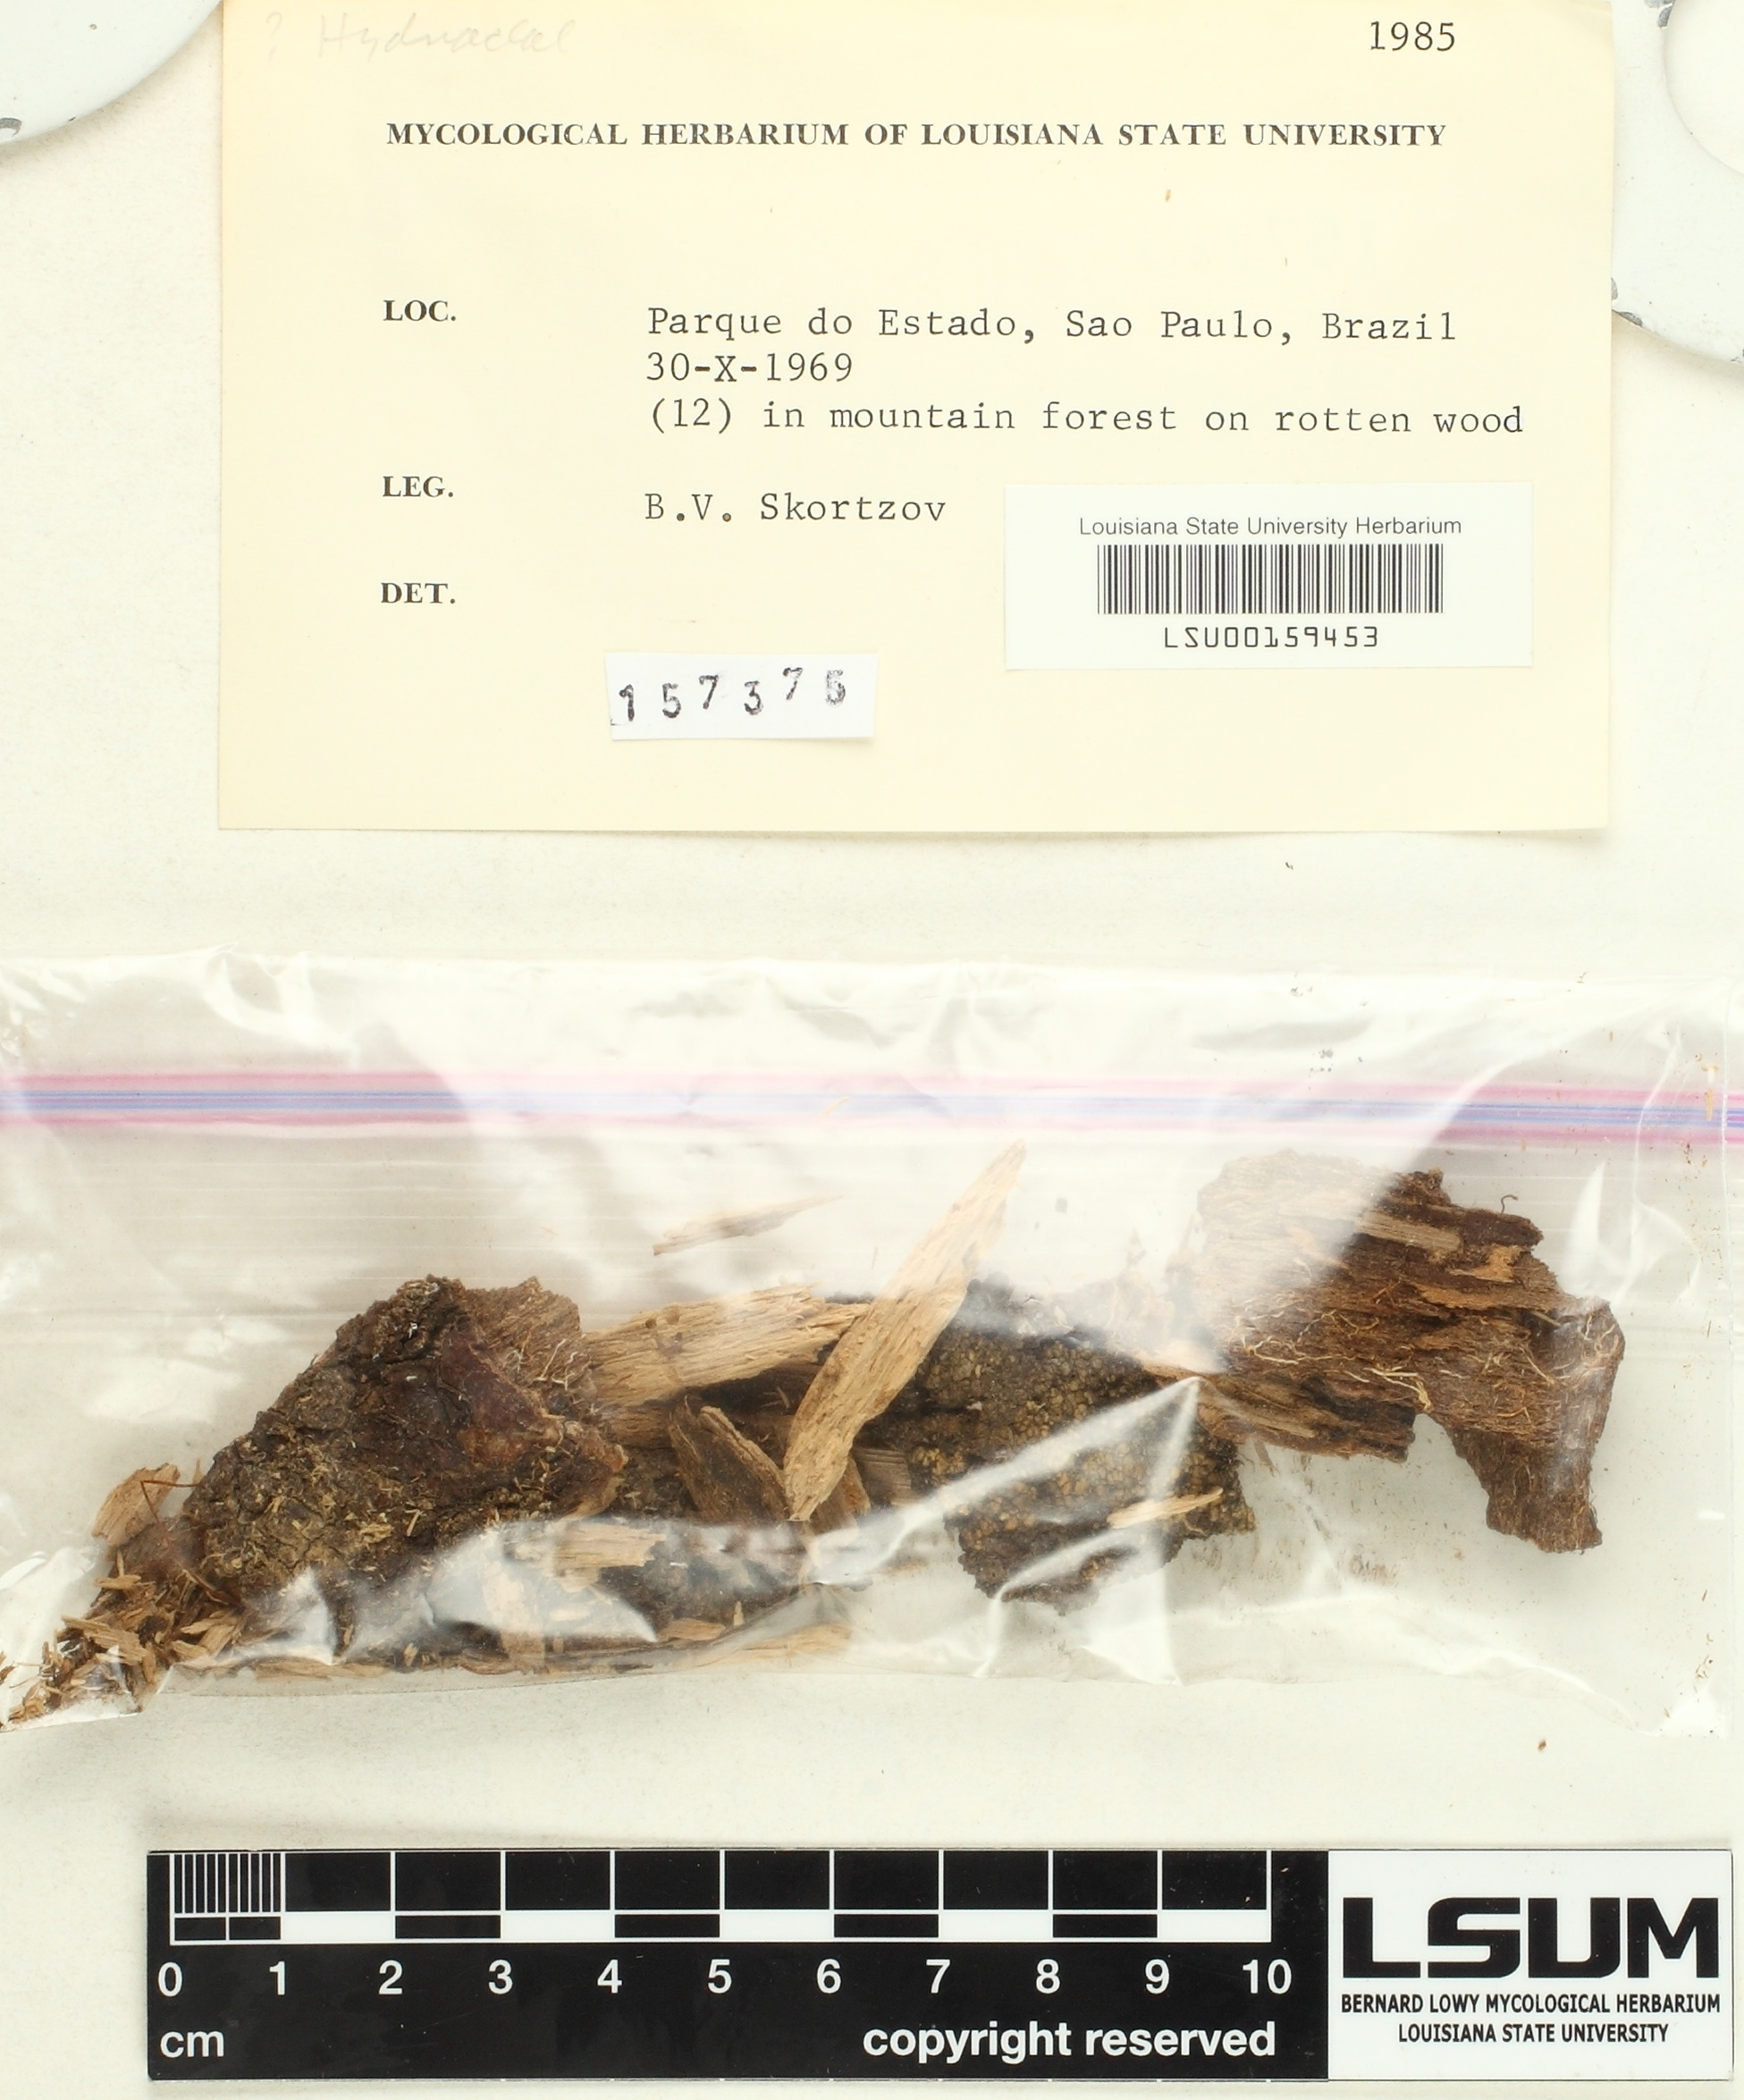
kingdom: Fungi
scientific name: Fungi
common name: Fungi
